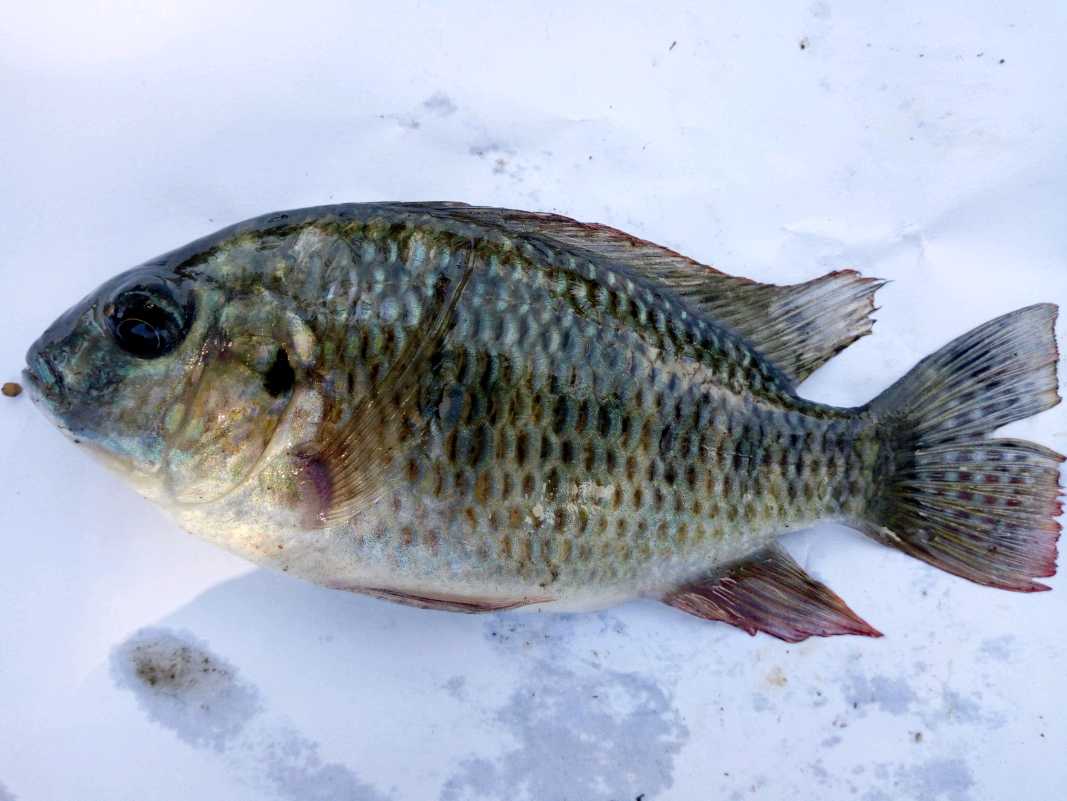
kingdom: Animalia
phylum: Chordata
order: Perciformes
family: Cichlidae
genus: Coptodon
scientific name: Coptodon rendalli
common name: Redbreast tilapia
